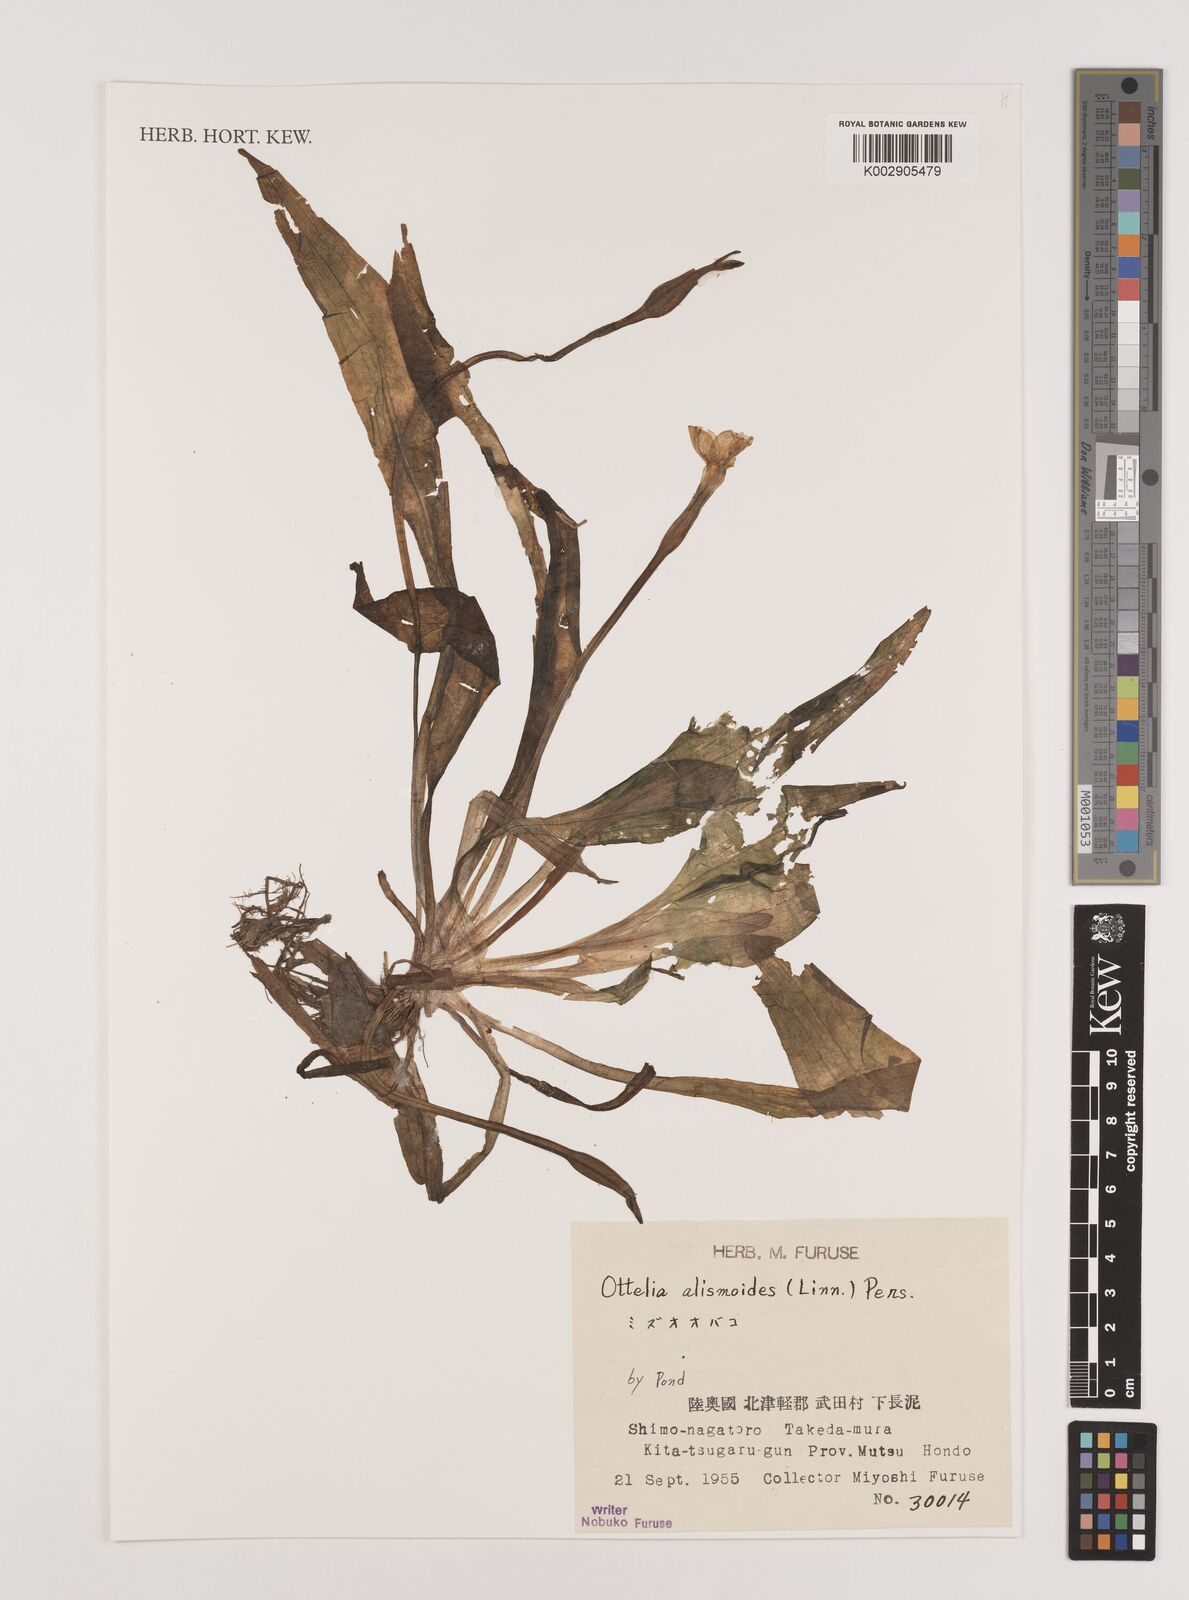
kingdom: Plantae
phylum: Tracheophyta
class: Liliopsida
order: Alismatales
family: Hydrocharitaceae
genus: Ottelia
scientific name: Ottelia alismoides
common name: Duck-lettuce
